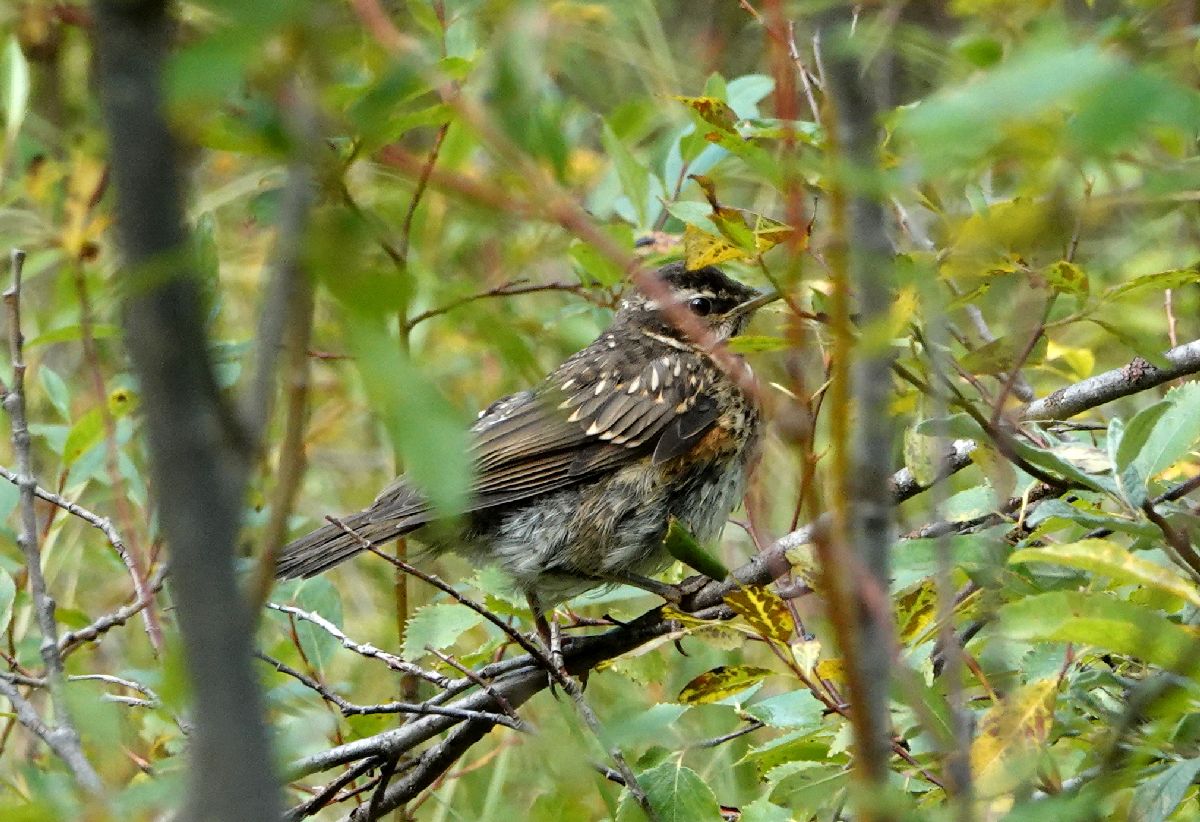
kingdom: Animalia
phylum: Chordata
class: Aves
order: Passeriformes
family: Turdidae
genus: Turdus
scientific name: Turdus iliacus
